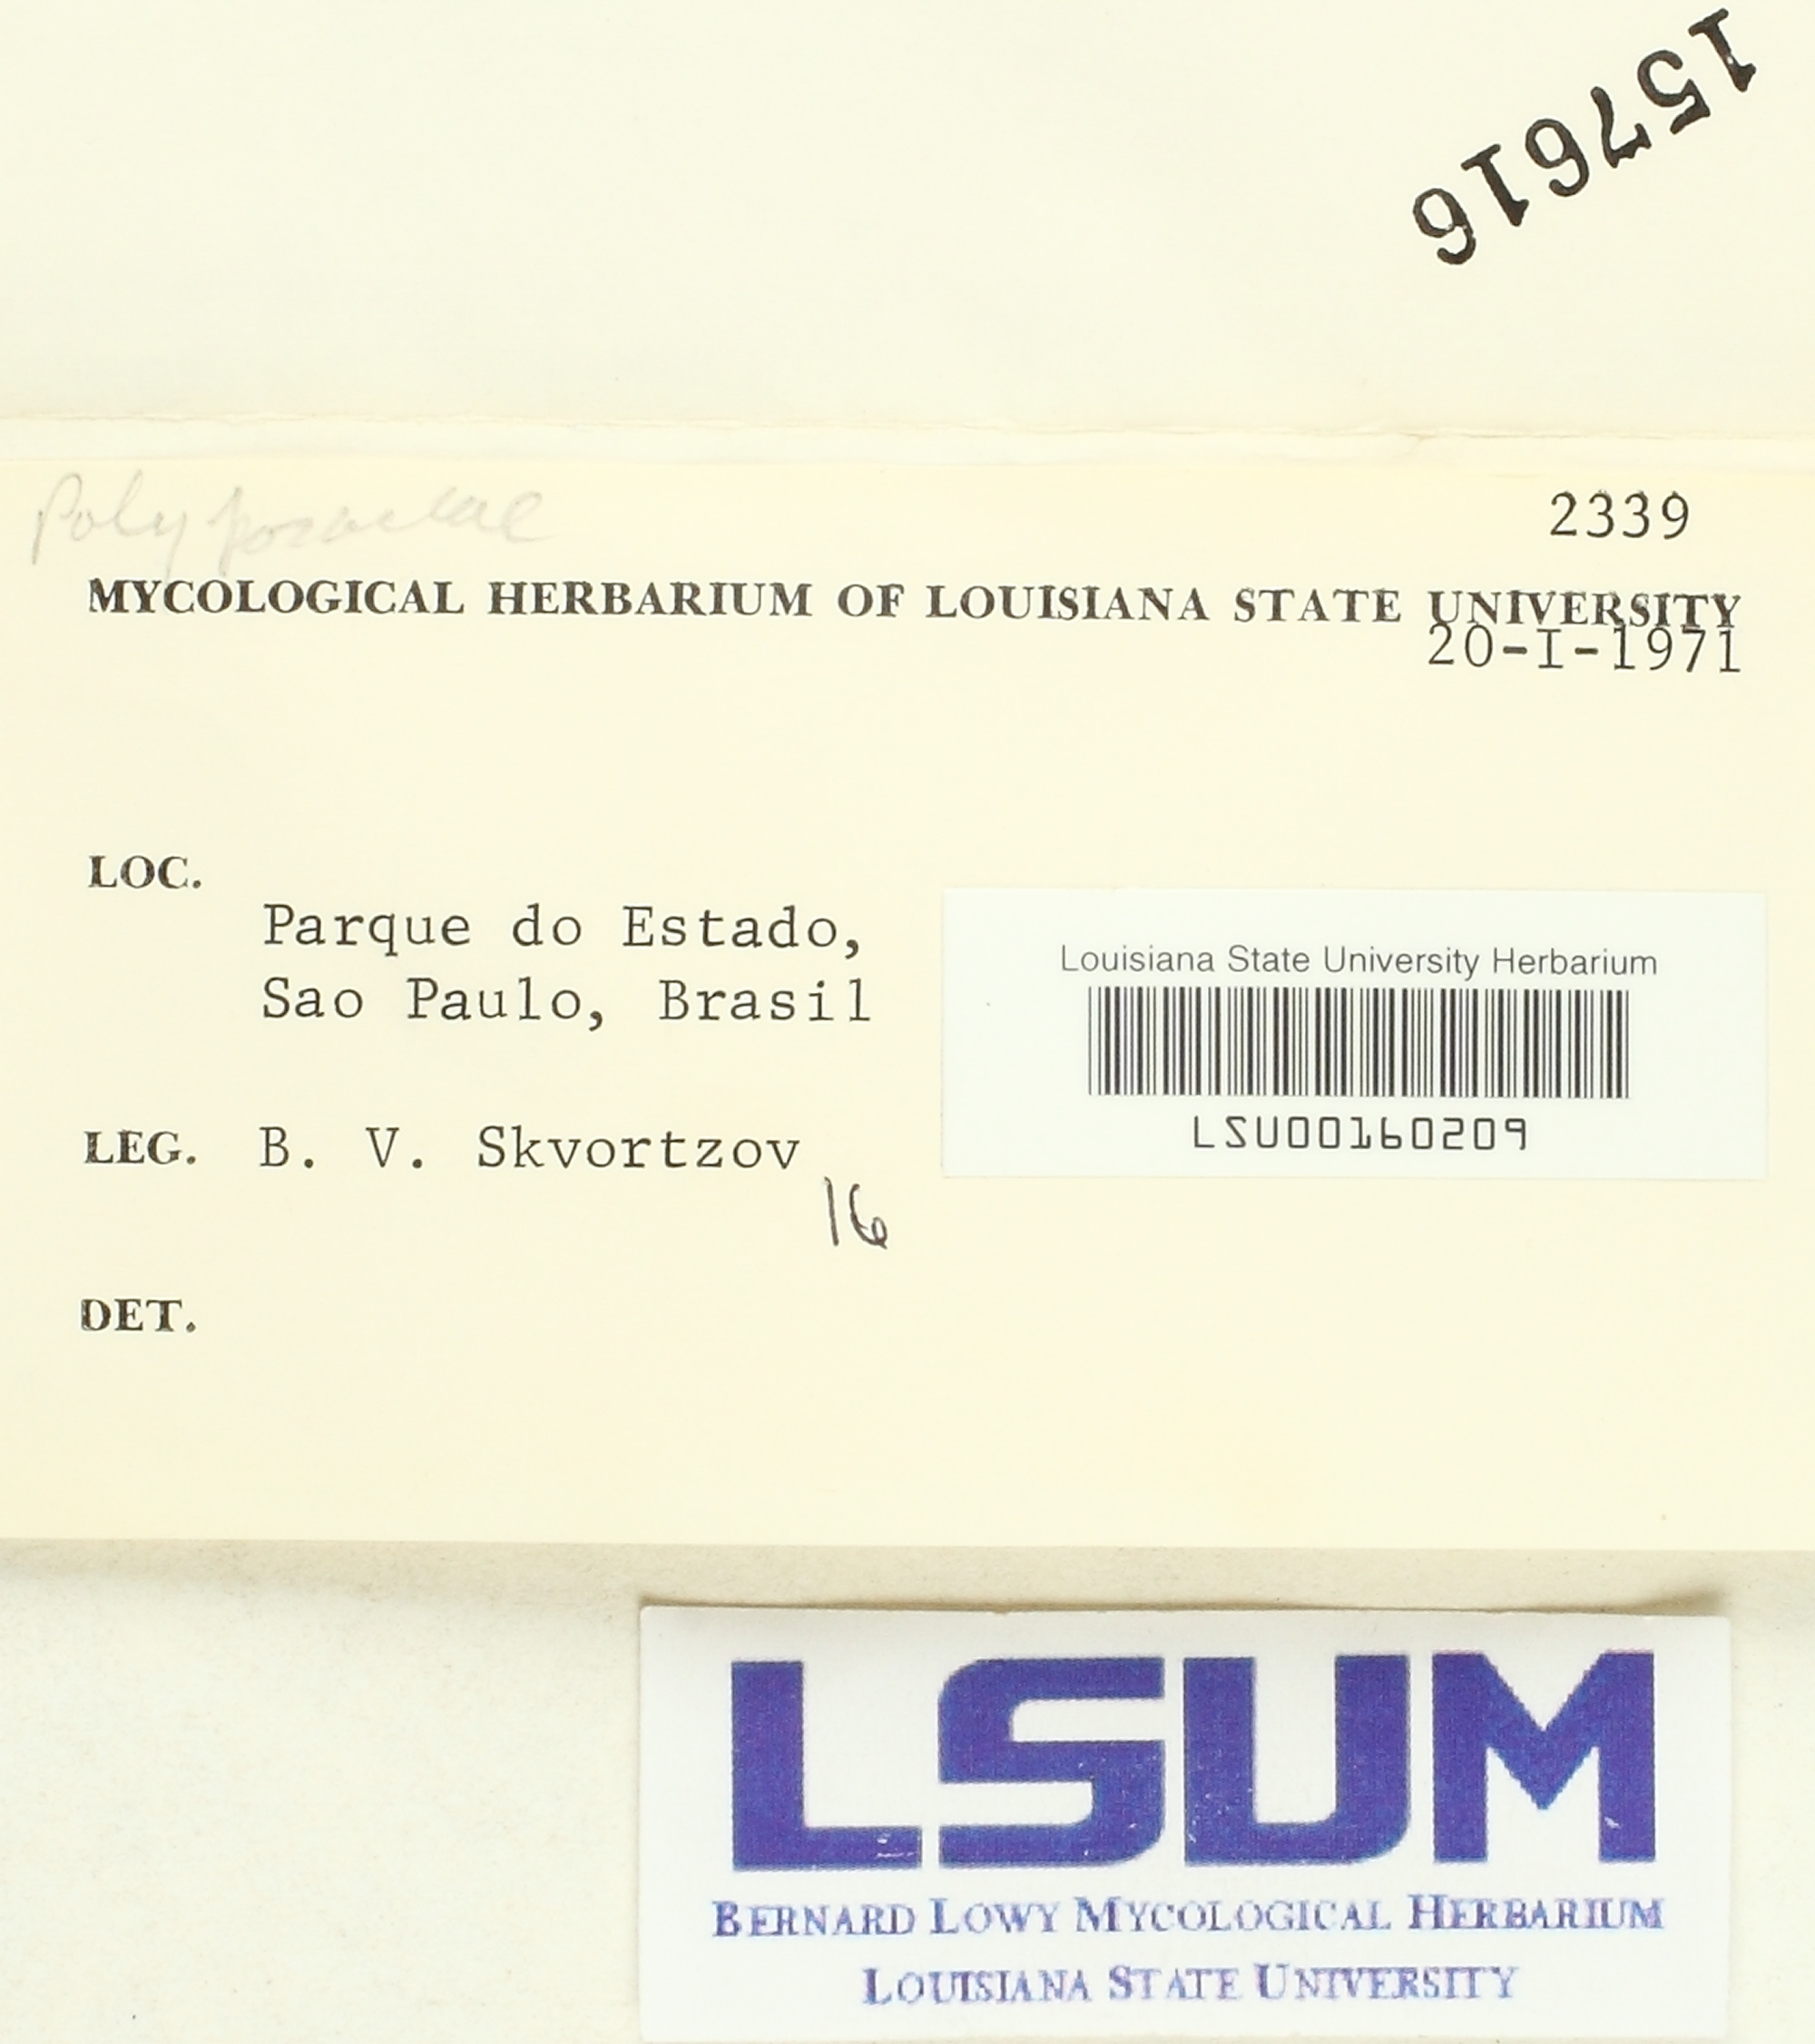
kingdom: Fungi
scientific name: Fungi
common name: Fungi
